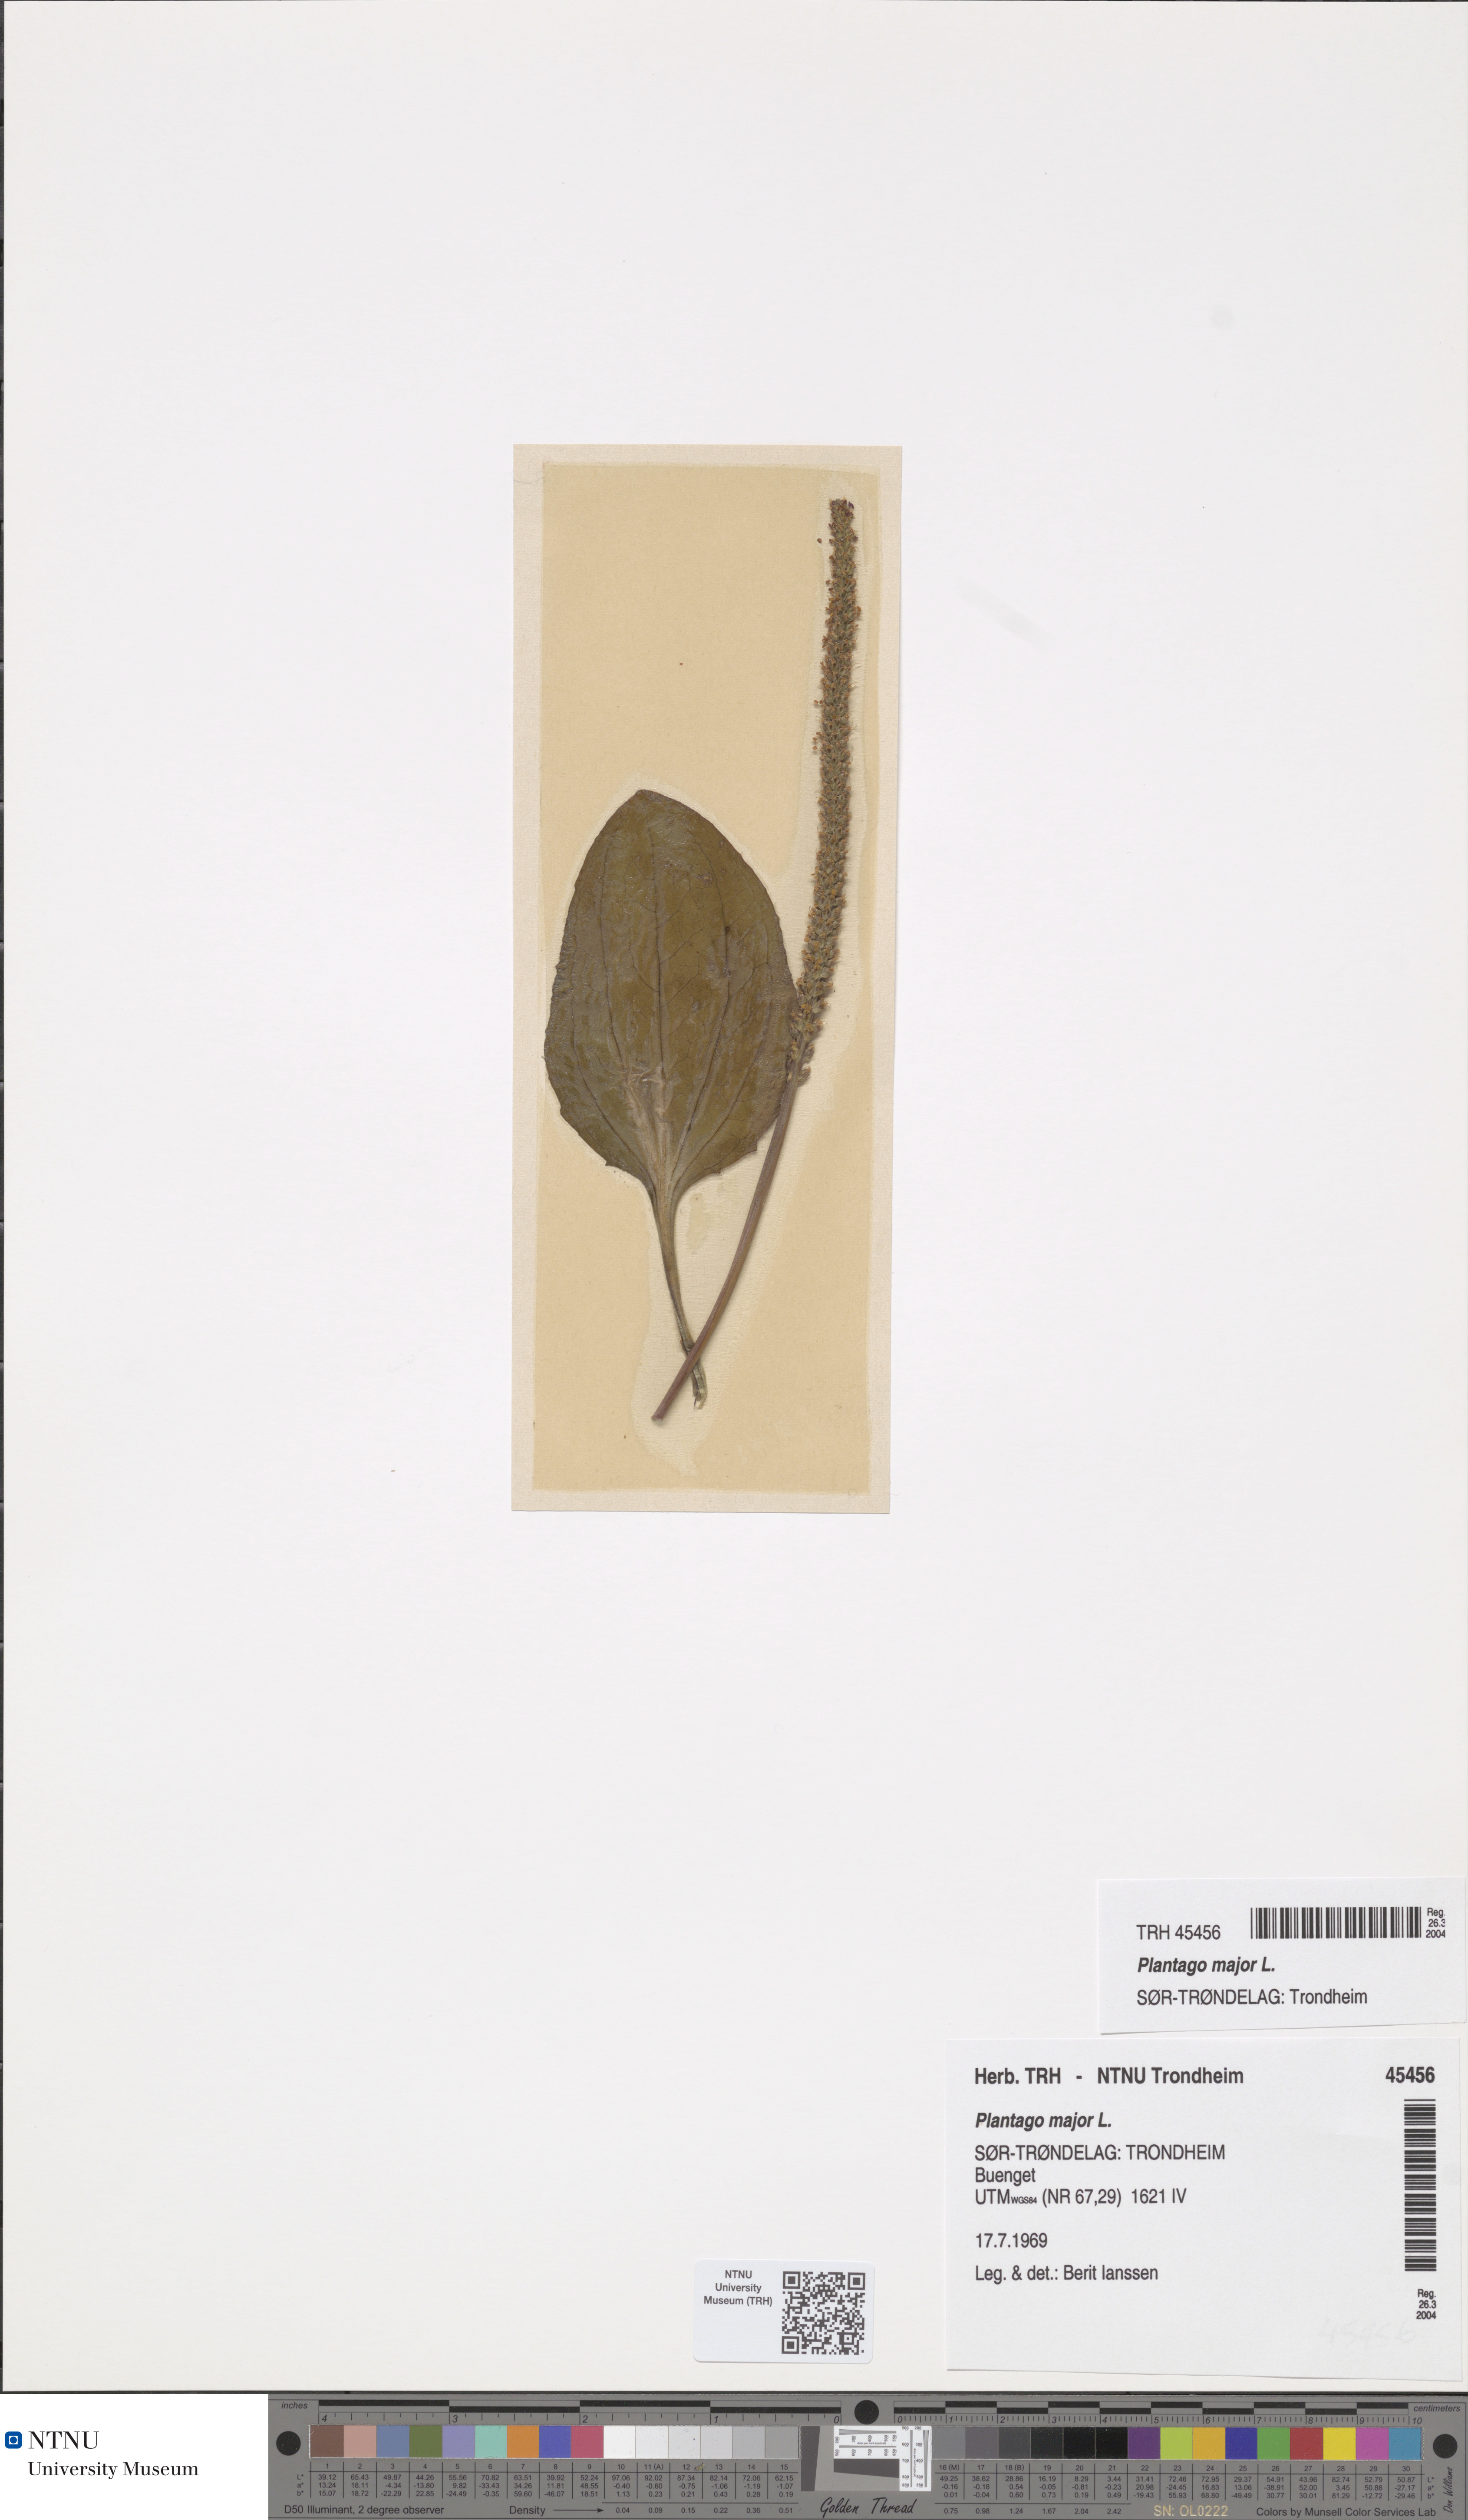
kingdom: Plantae
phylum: Tracheophyta
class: Magnoliopsida
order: Lamiales
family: Plantaginaceae
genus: Plantago
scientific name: Plantago major
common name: Common plantain
